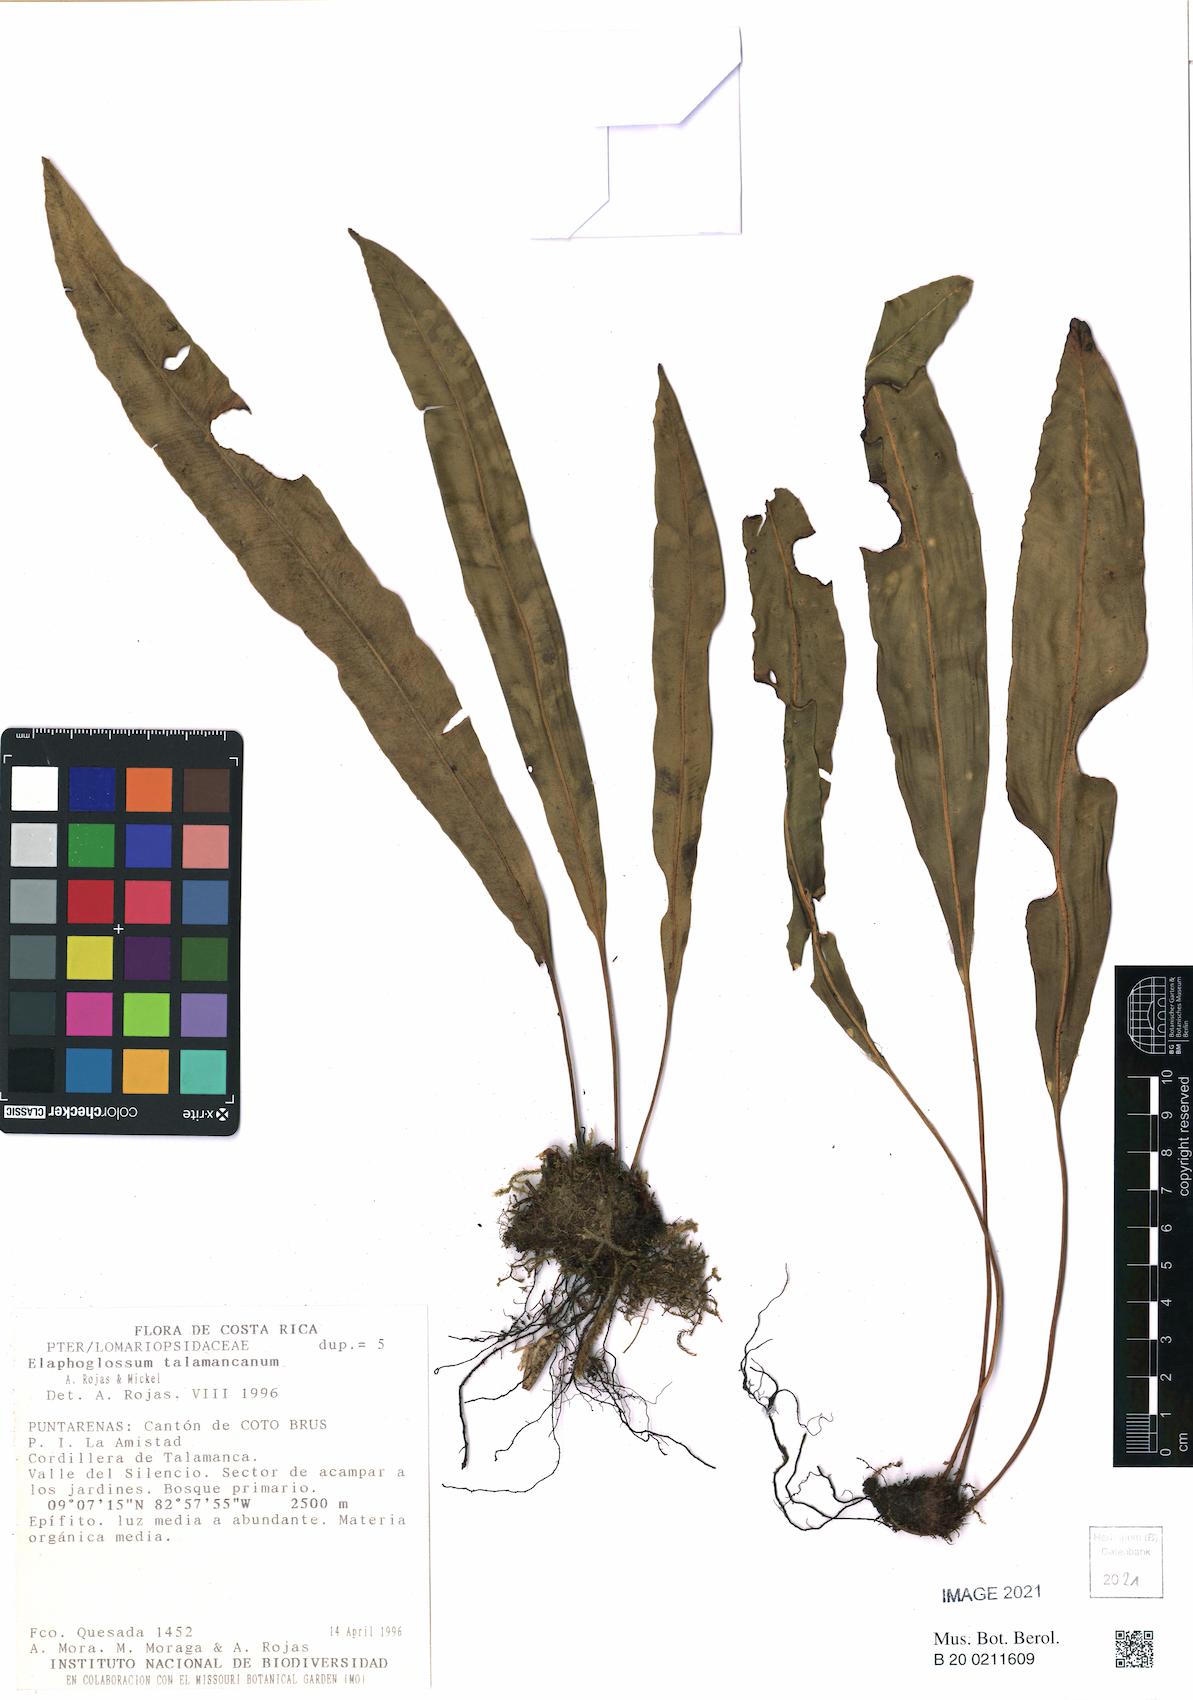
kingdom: Plantae
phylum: Tracheophyta
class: Polypodiopsida
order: Polypodiales
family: Dryopteridaceae
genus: Elaphoglossum
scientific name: Elaphoglossum talamancanum
